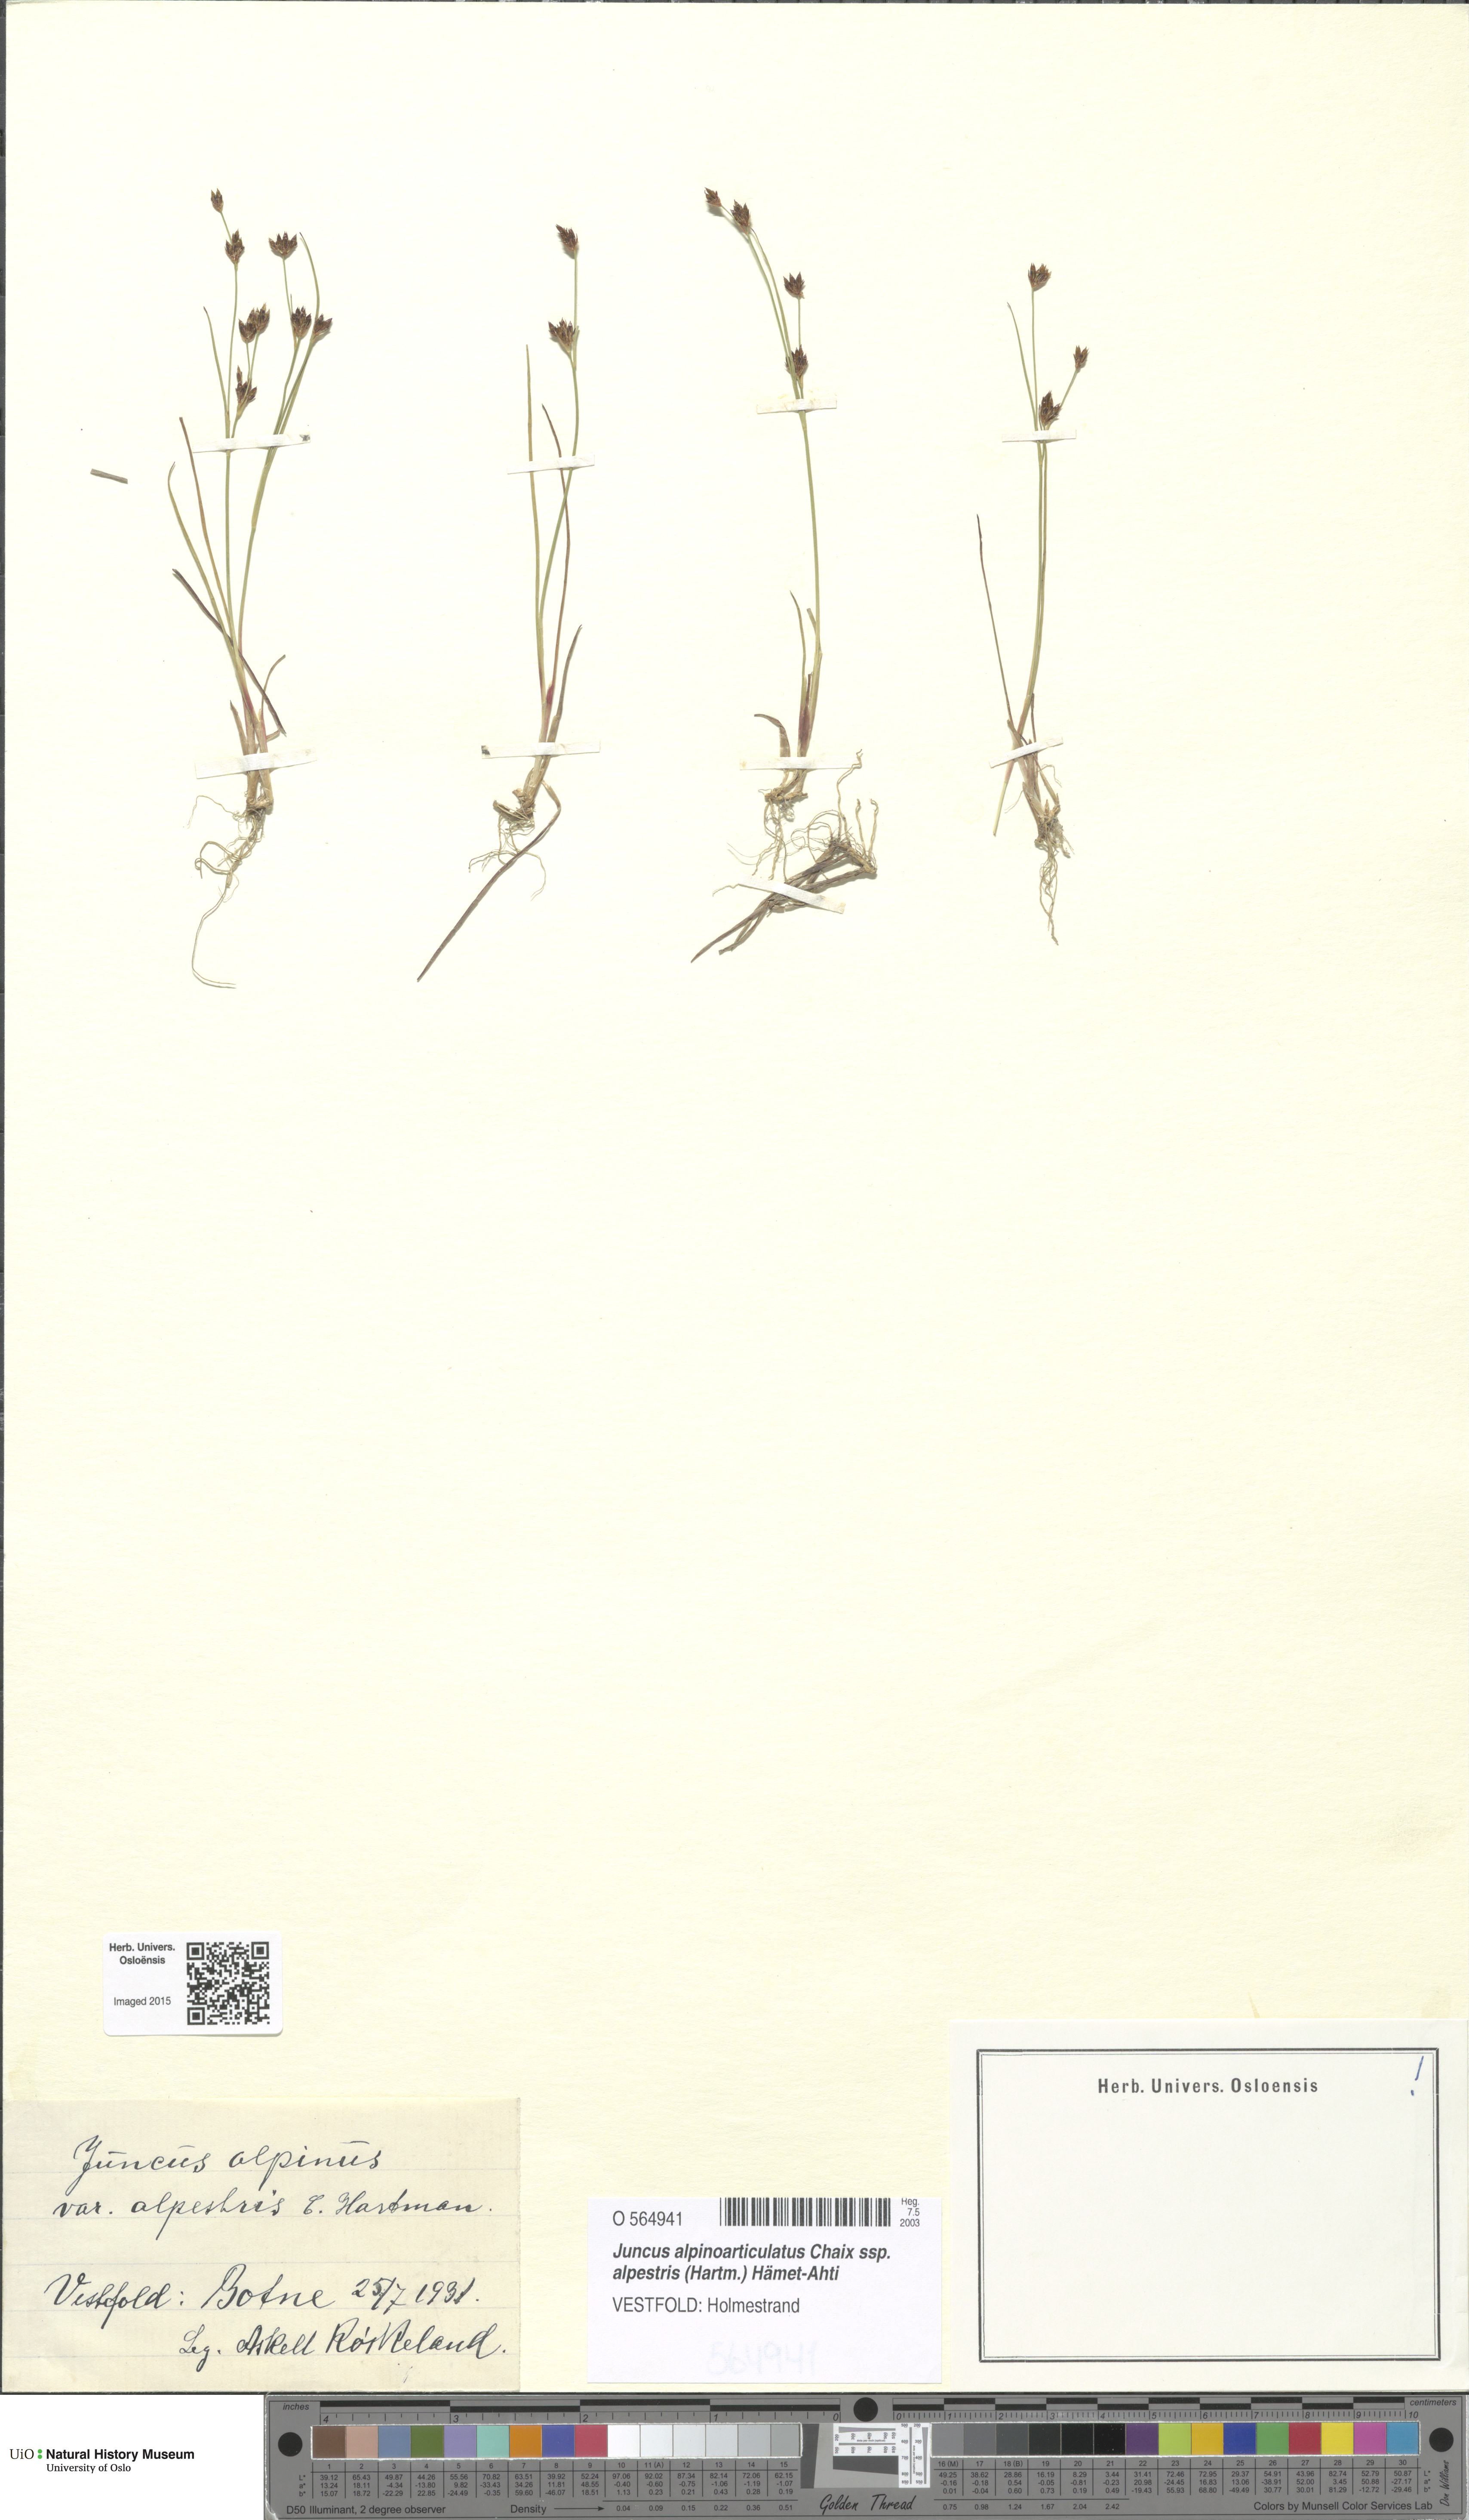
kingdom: Plantae
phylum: Tracheophyta
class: Liliopsida
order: Poales
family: Juncaceae
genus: Juncus
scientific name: Juncus alpinoarticulatus
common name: Alpine rush
